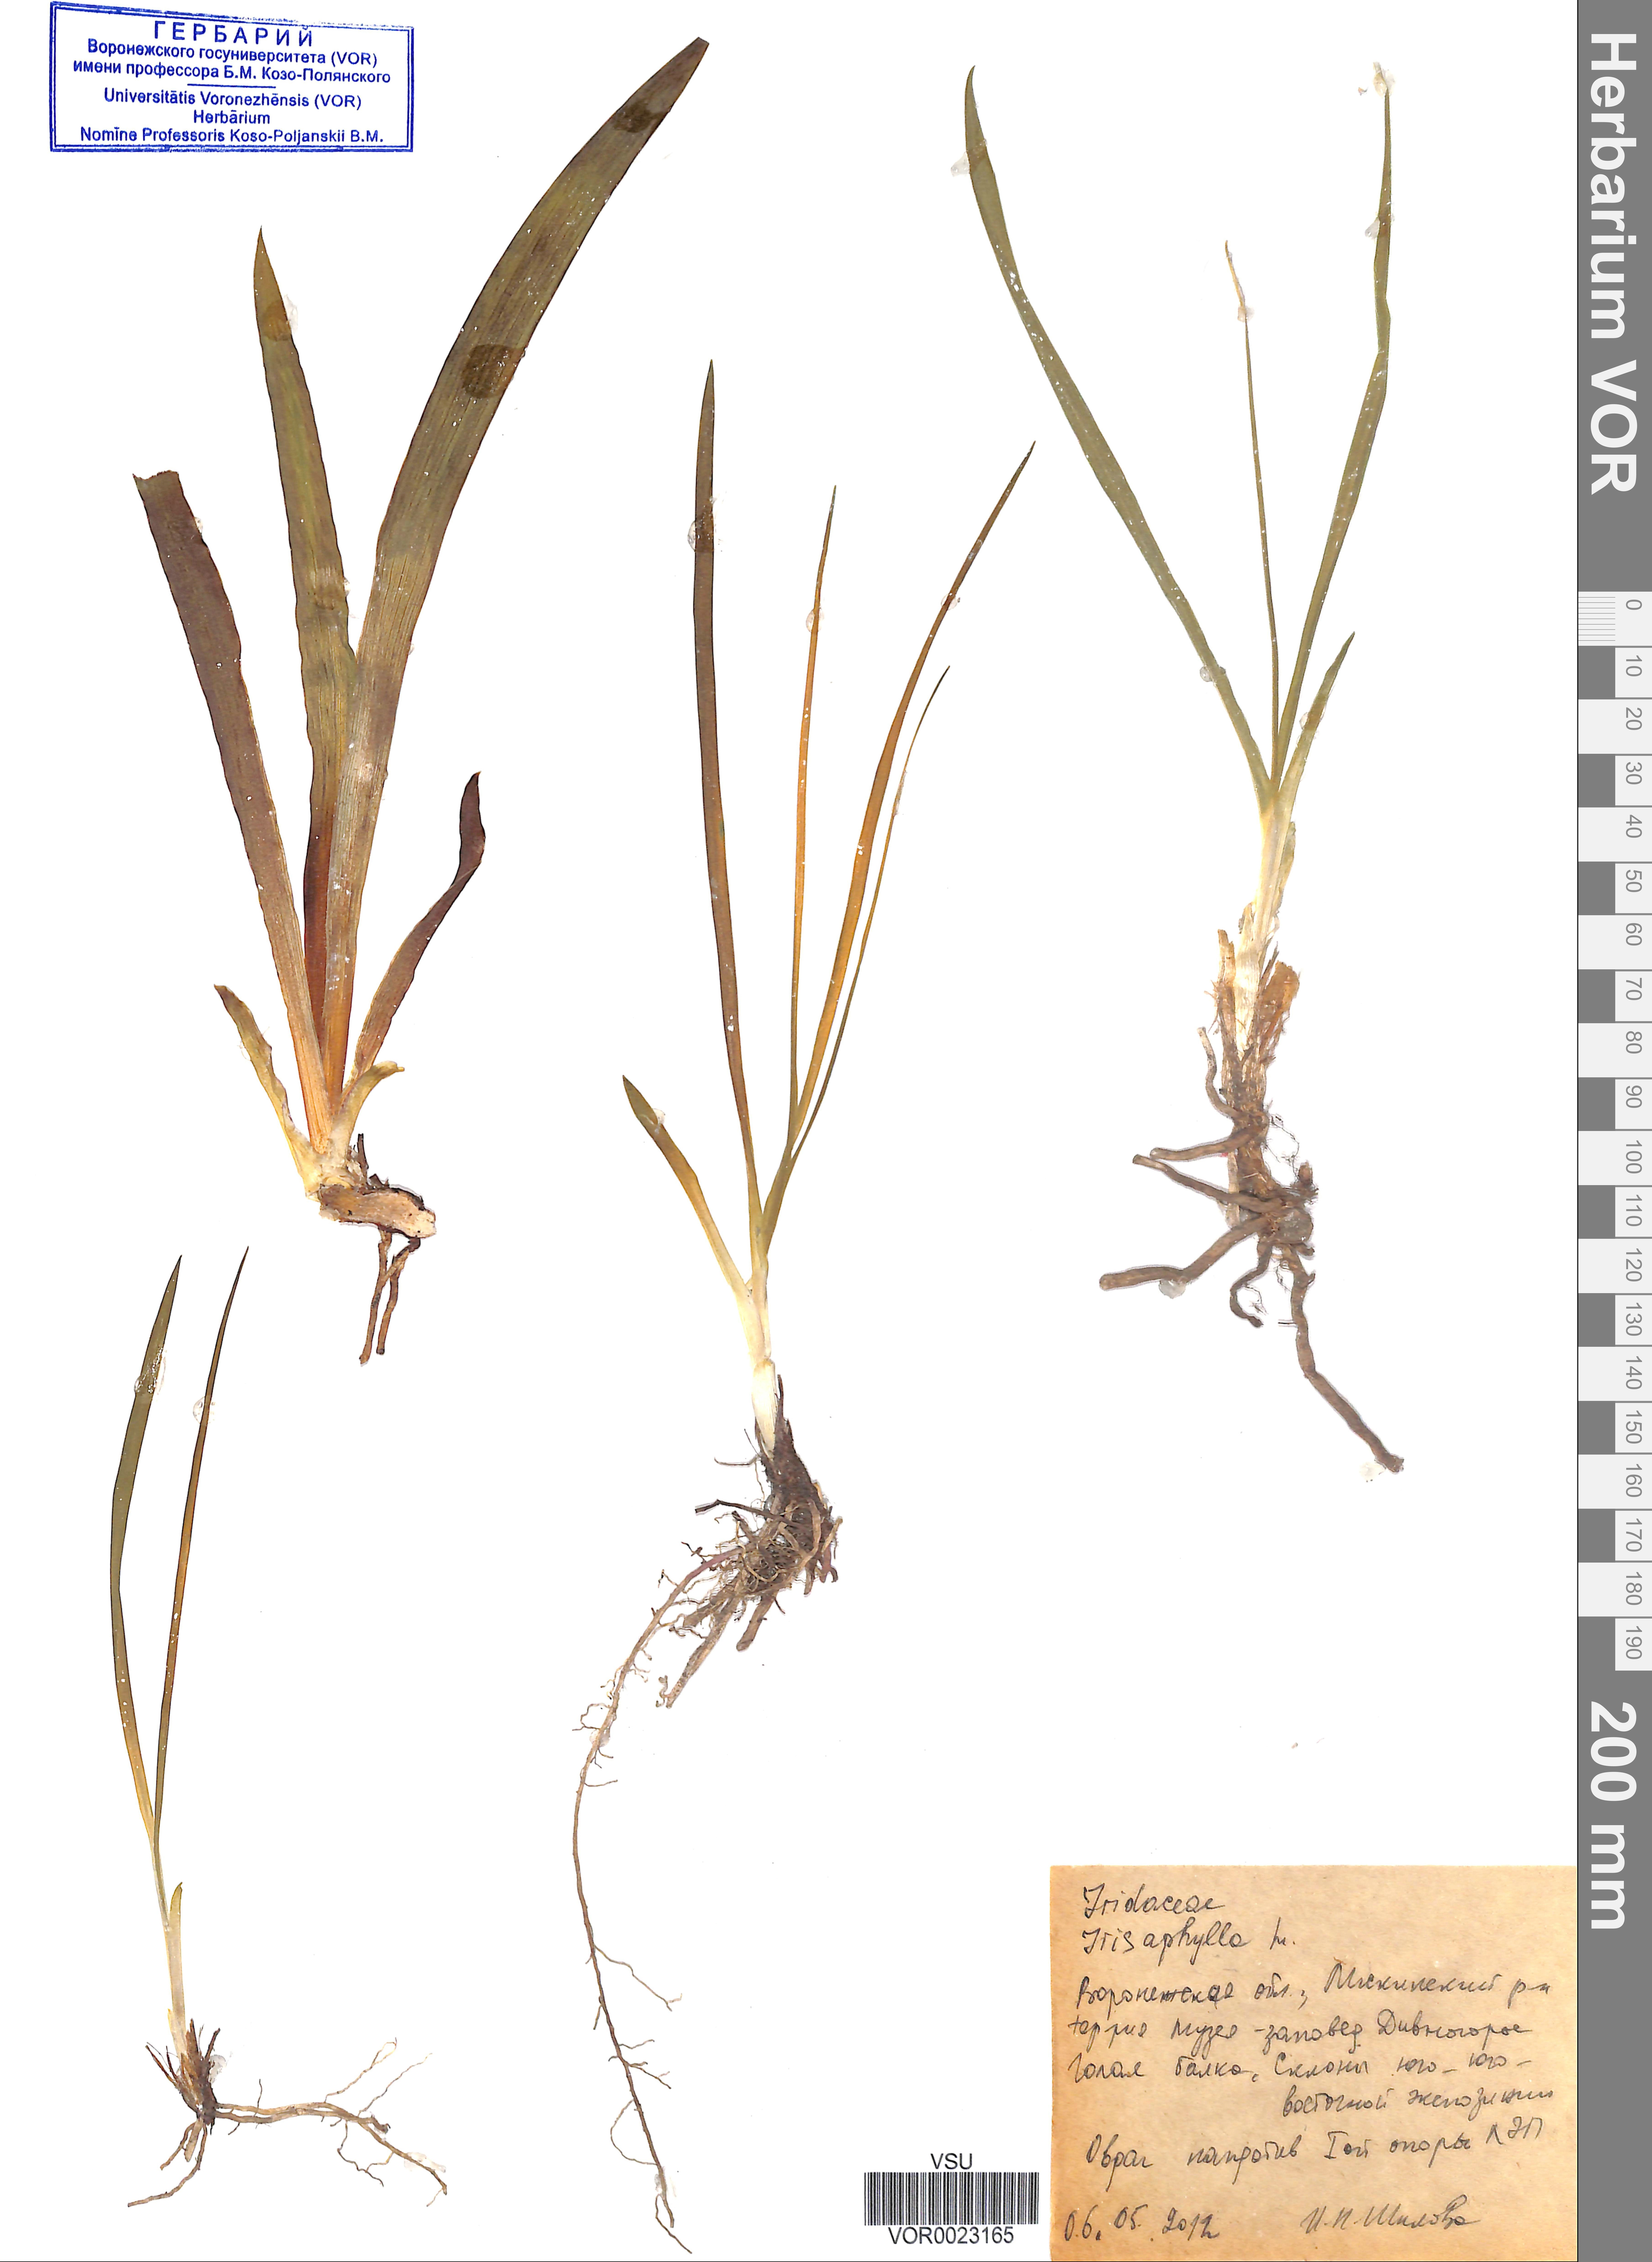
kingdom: Plantae
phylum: Tracheophyta
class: Liliopsida
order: Asparagales
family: Iridaceae
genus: Iris
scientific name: Iris aphylla
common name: Stool iris
